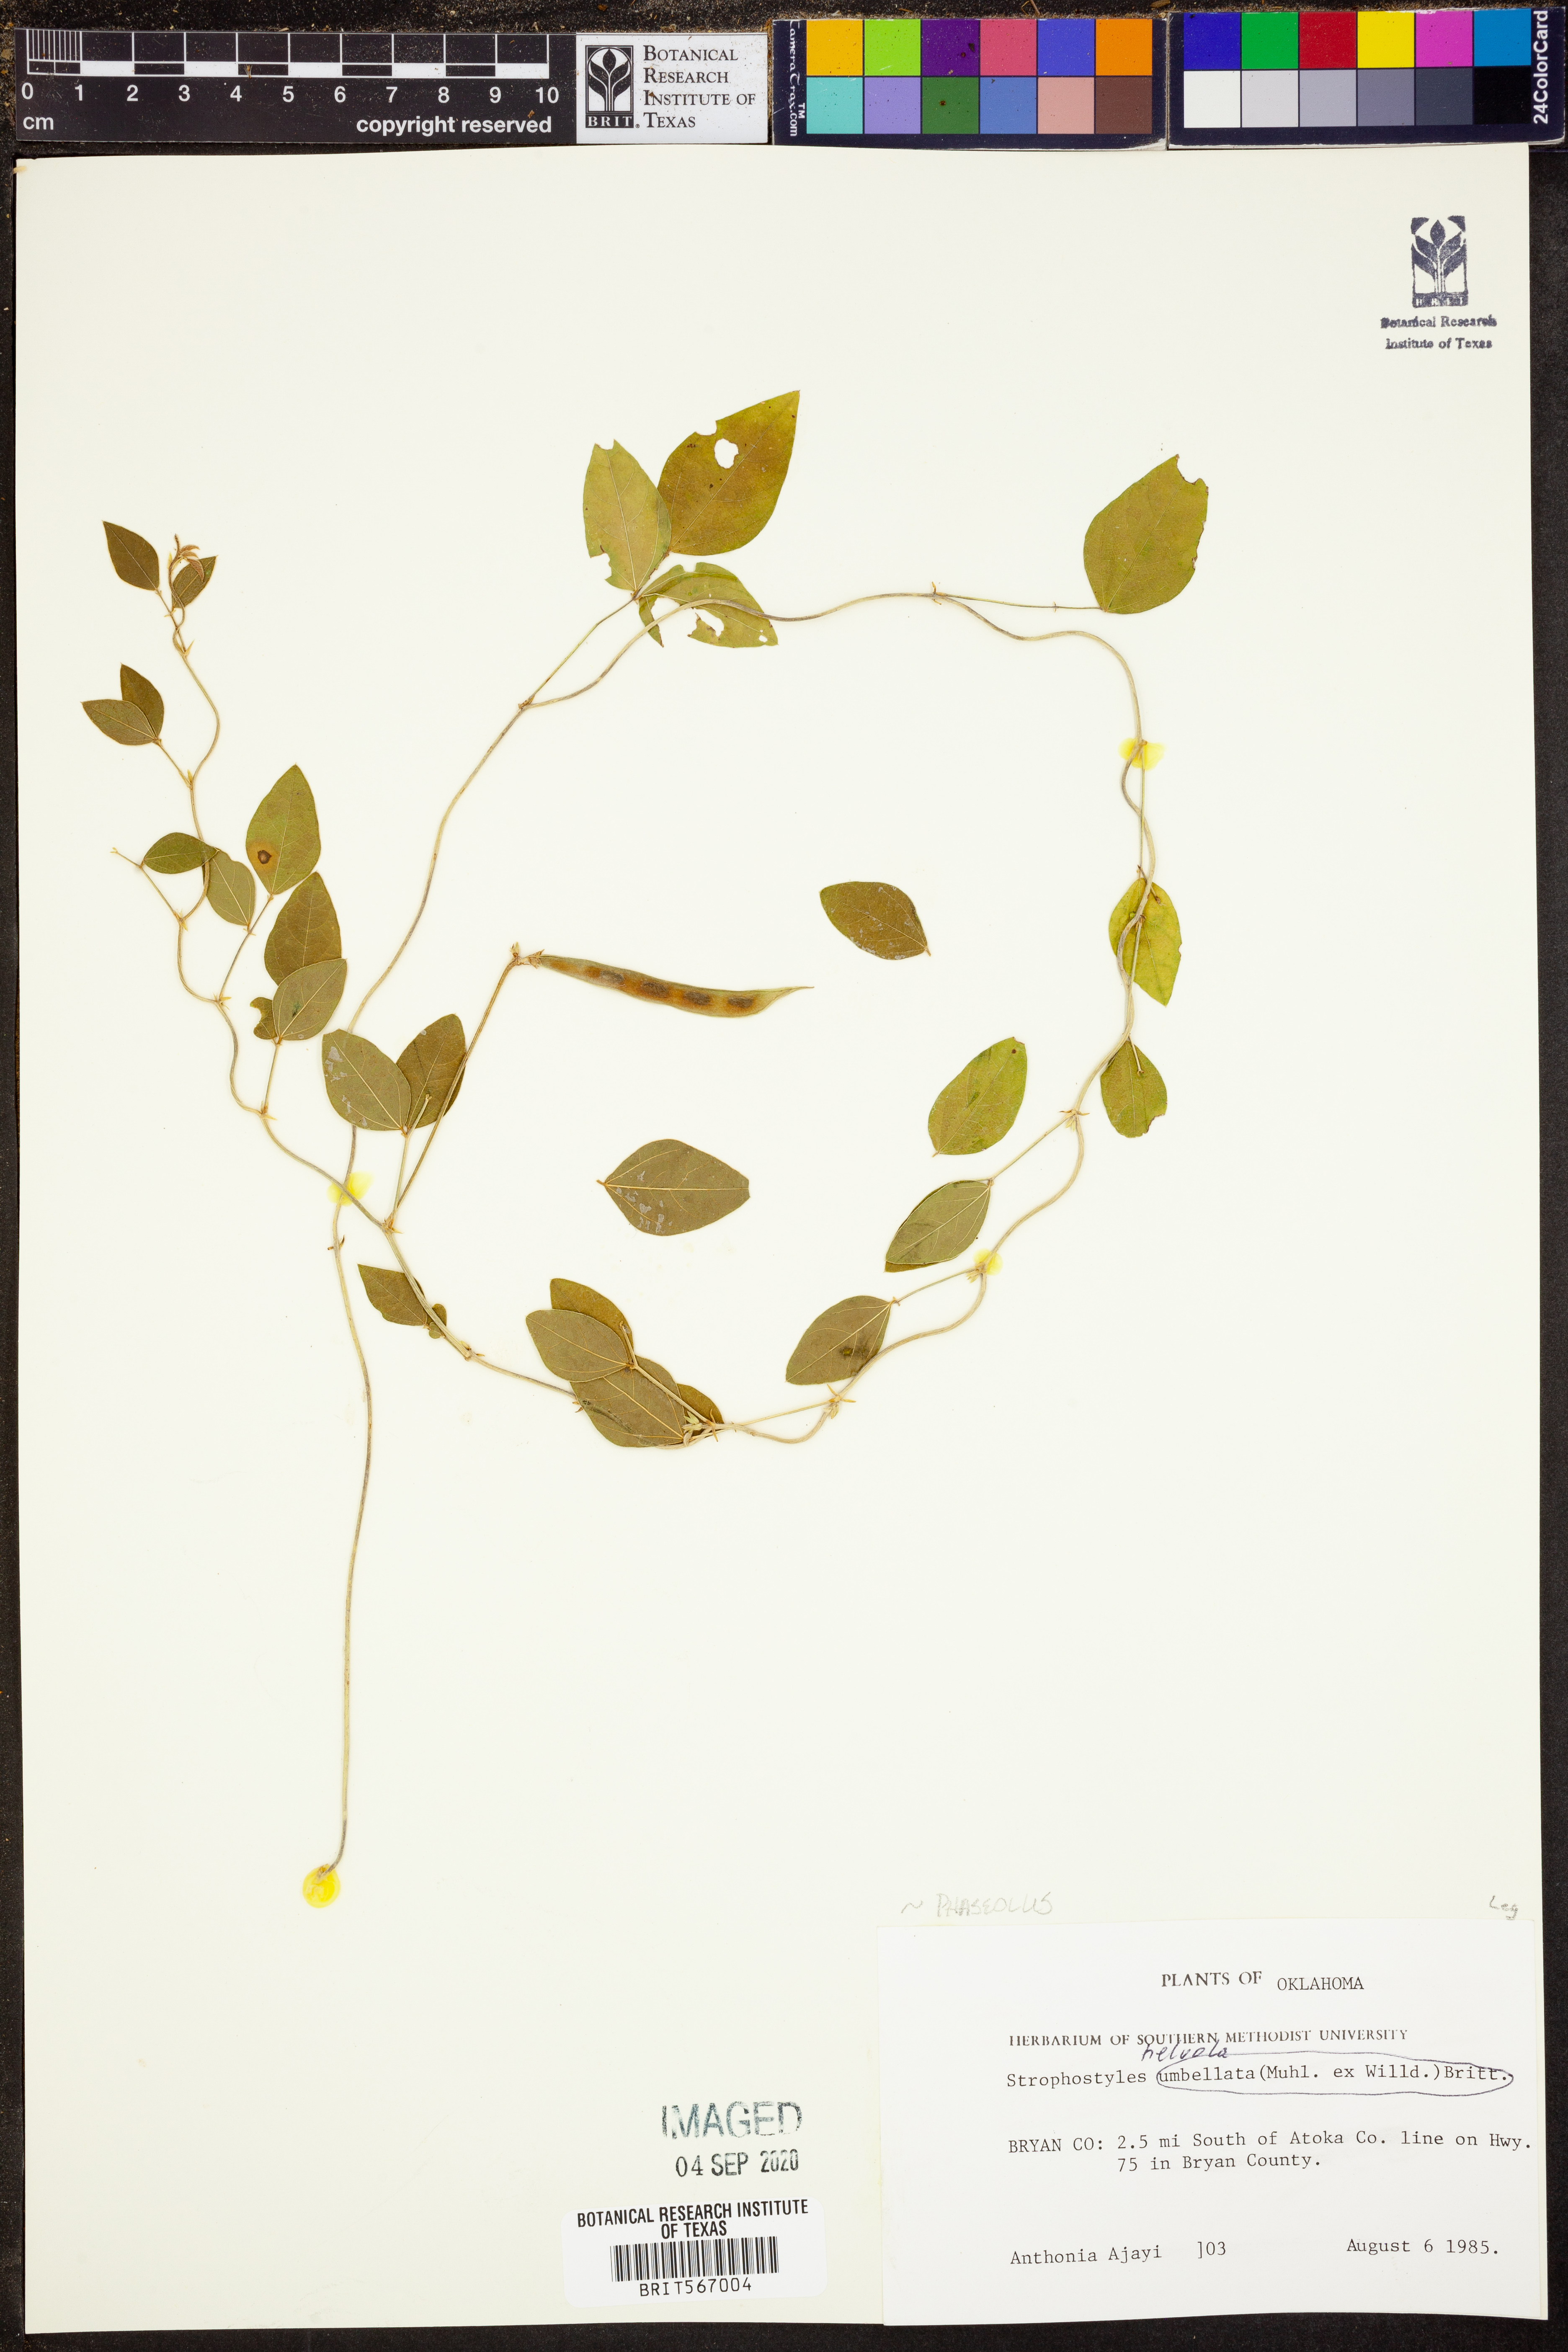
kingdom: Plantae
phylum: Tracheophyta
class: Magnoliopsida
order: Fabales
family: Fabaceae
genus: Strophostyles
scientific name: Strophostyles helvola
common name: Trailing wild bean
